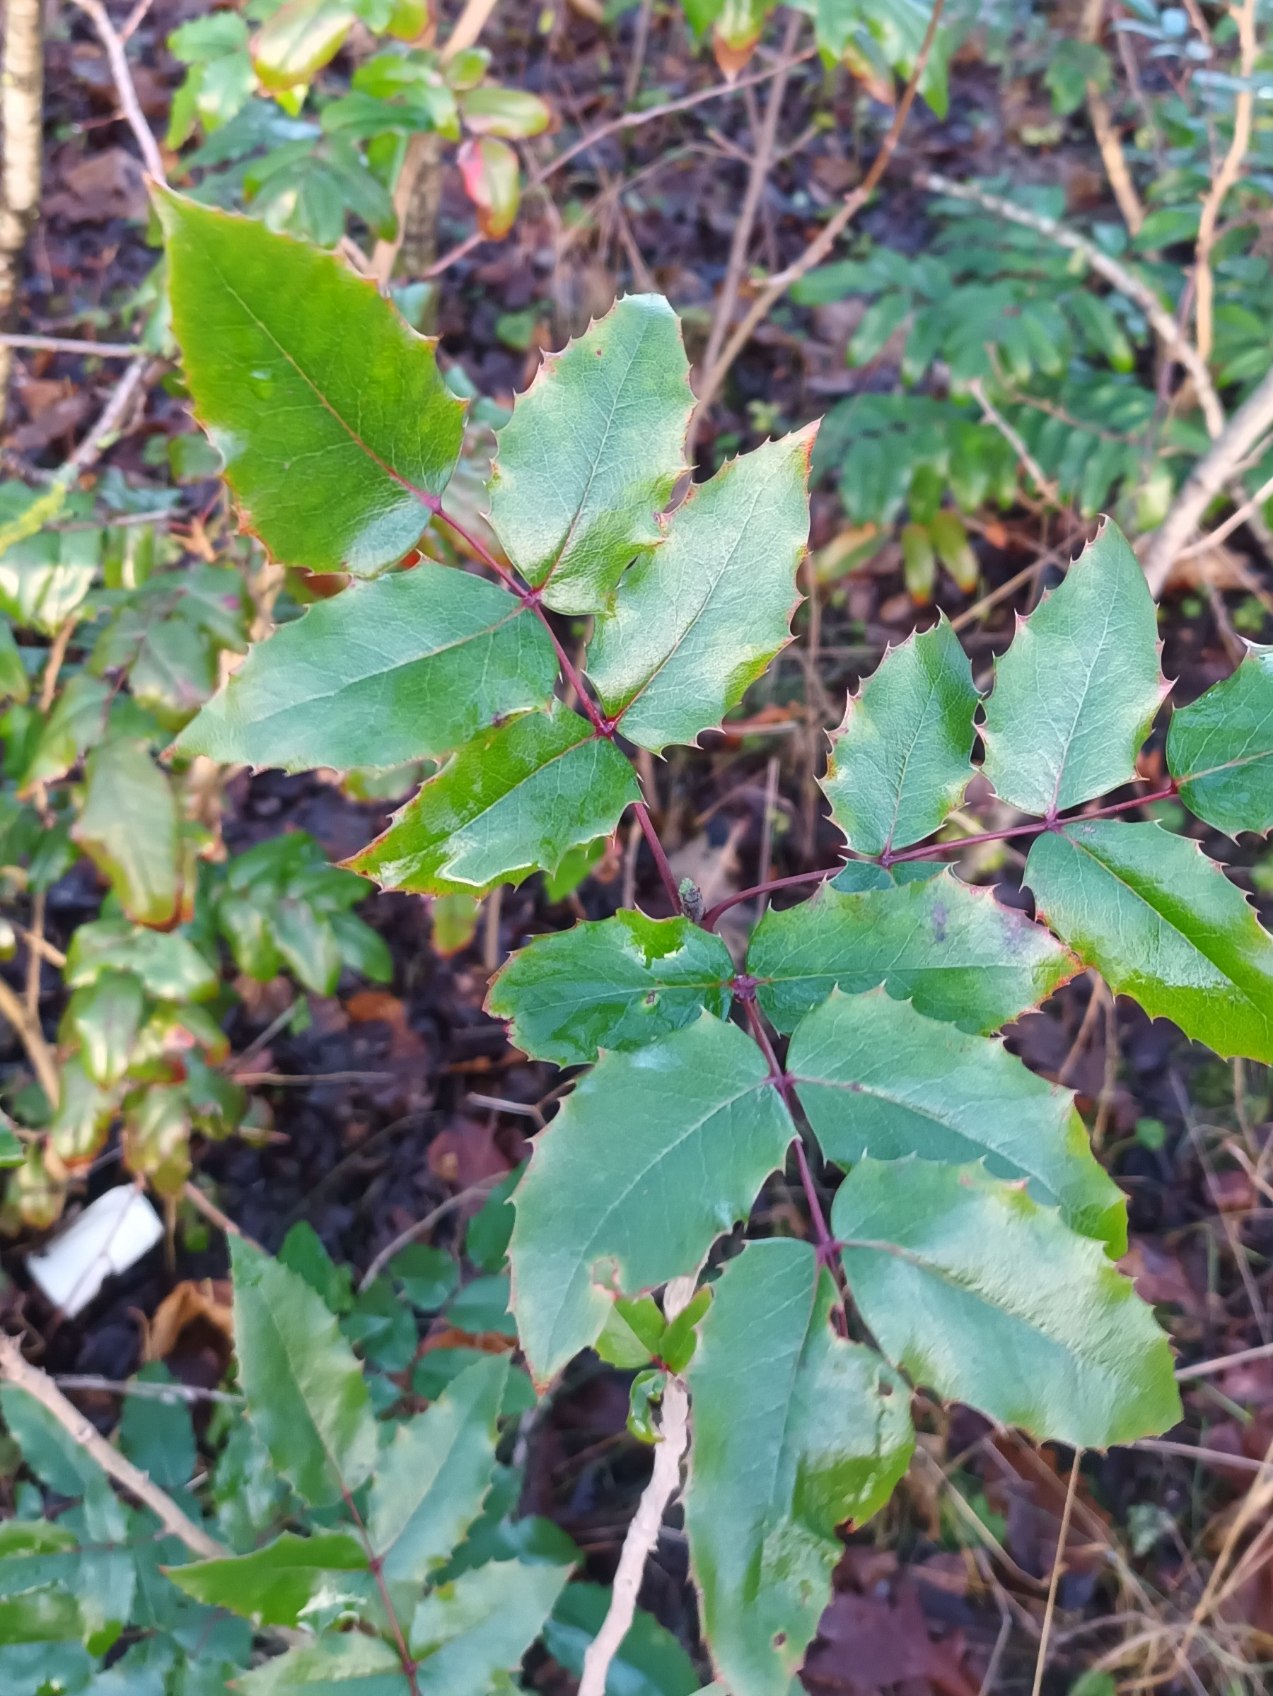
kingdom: Plantae
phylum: Tracheophyta
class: Magnoliopsida
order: Ranunculales
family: Berberidaceae
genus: Mahonia
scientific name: Mahonia aquifolium
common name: Almindelig mahonie
